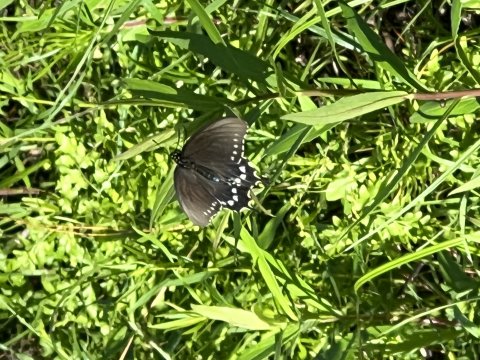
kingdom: Animalia
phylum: Arthropoda
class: Insecta
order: Lepidoptera
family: Papilionidae
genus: Battus
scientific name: Battus philenor
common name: Pipevine Swallowtail
